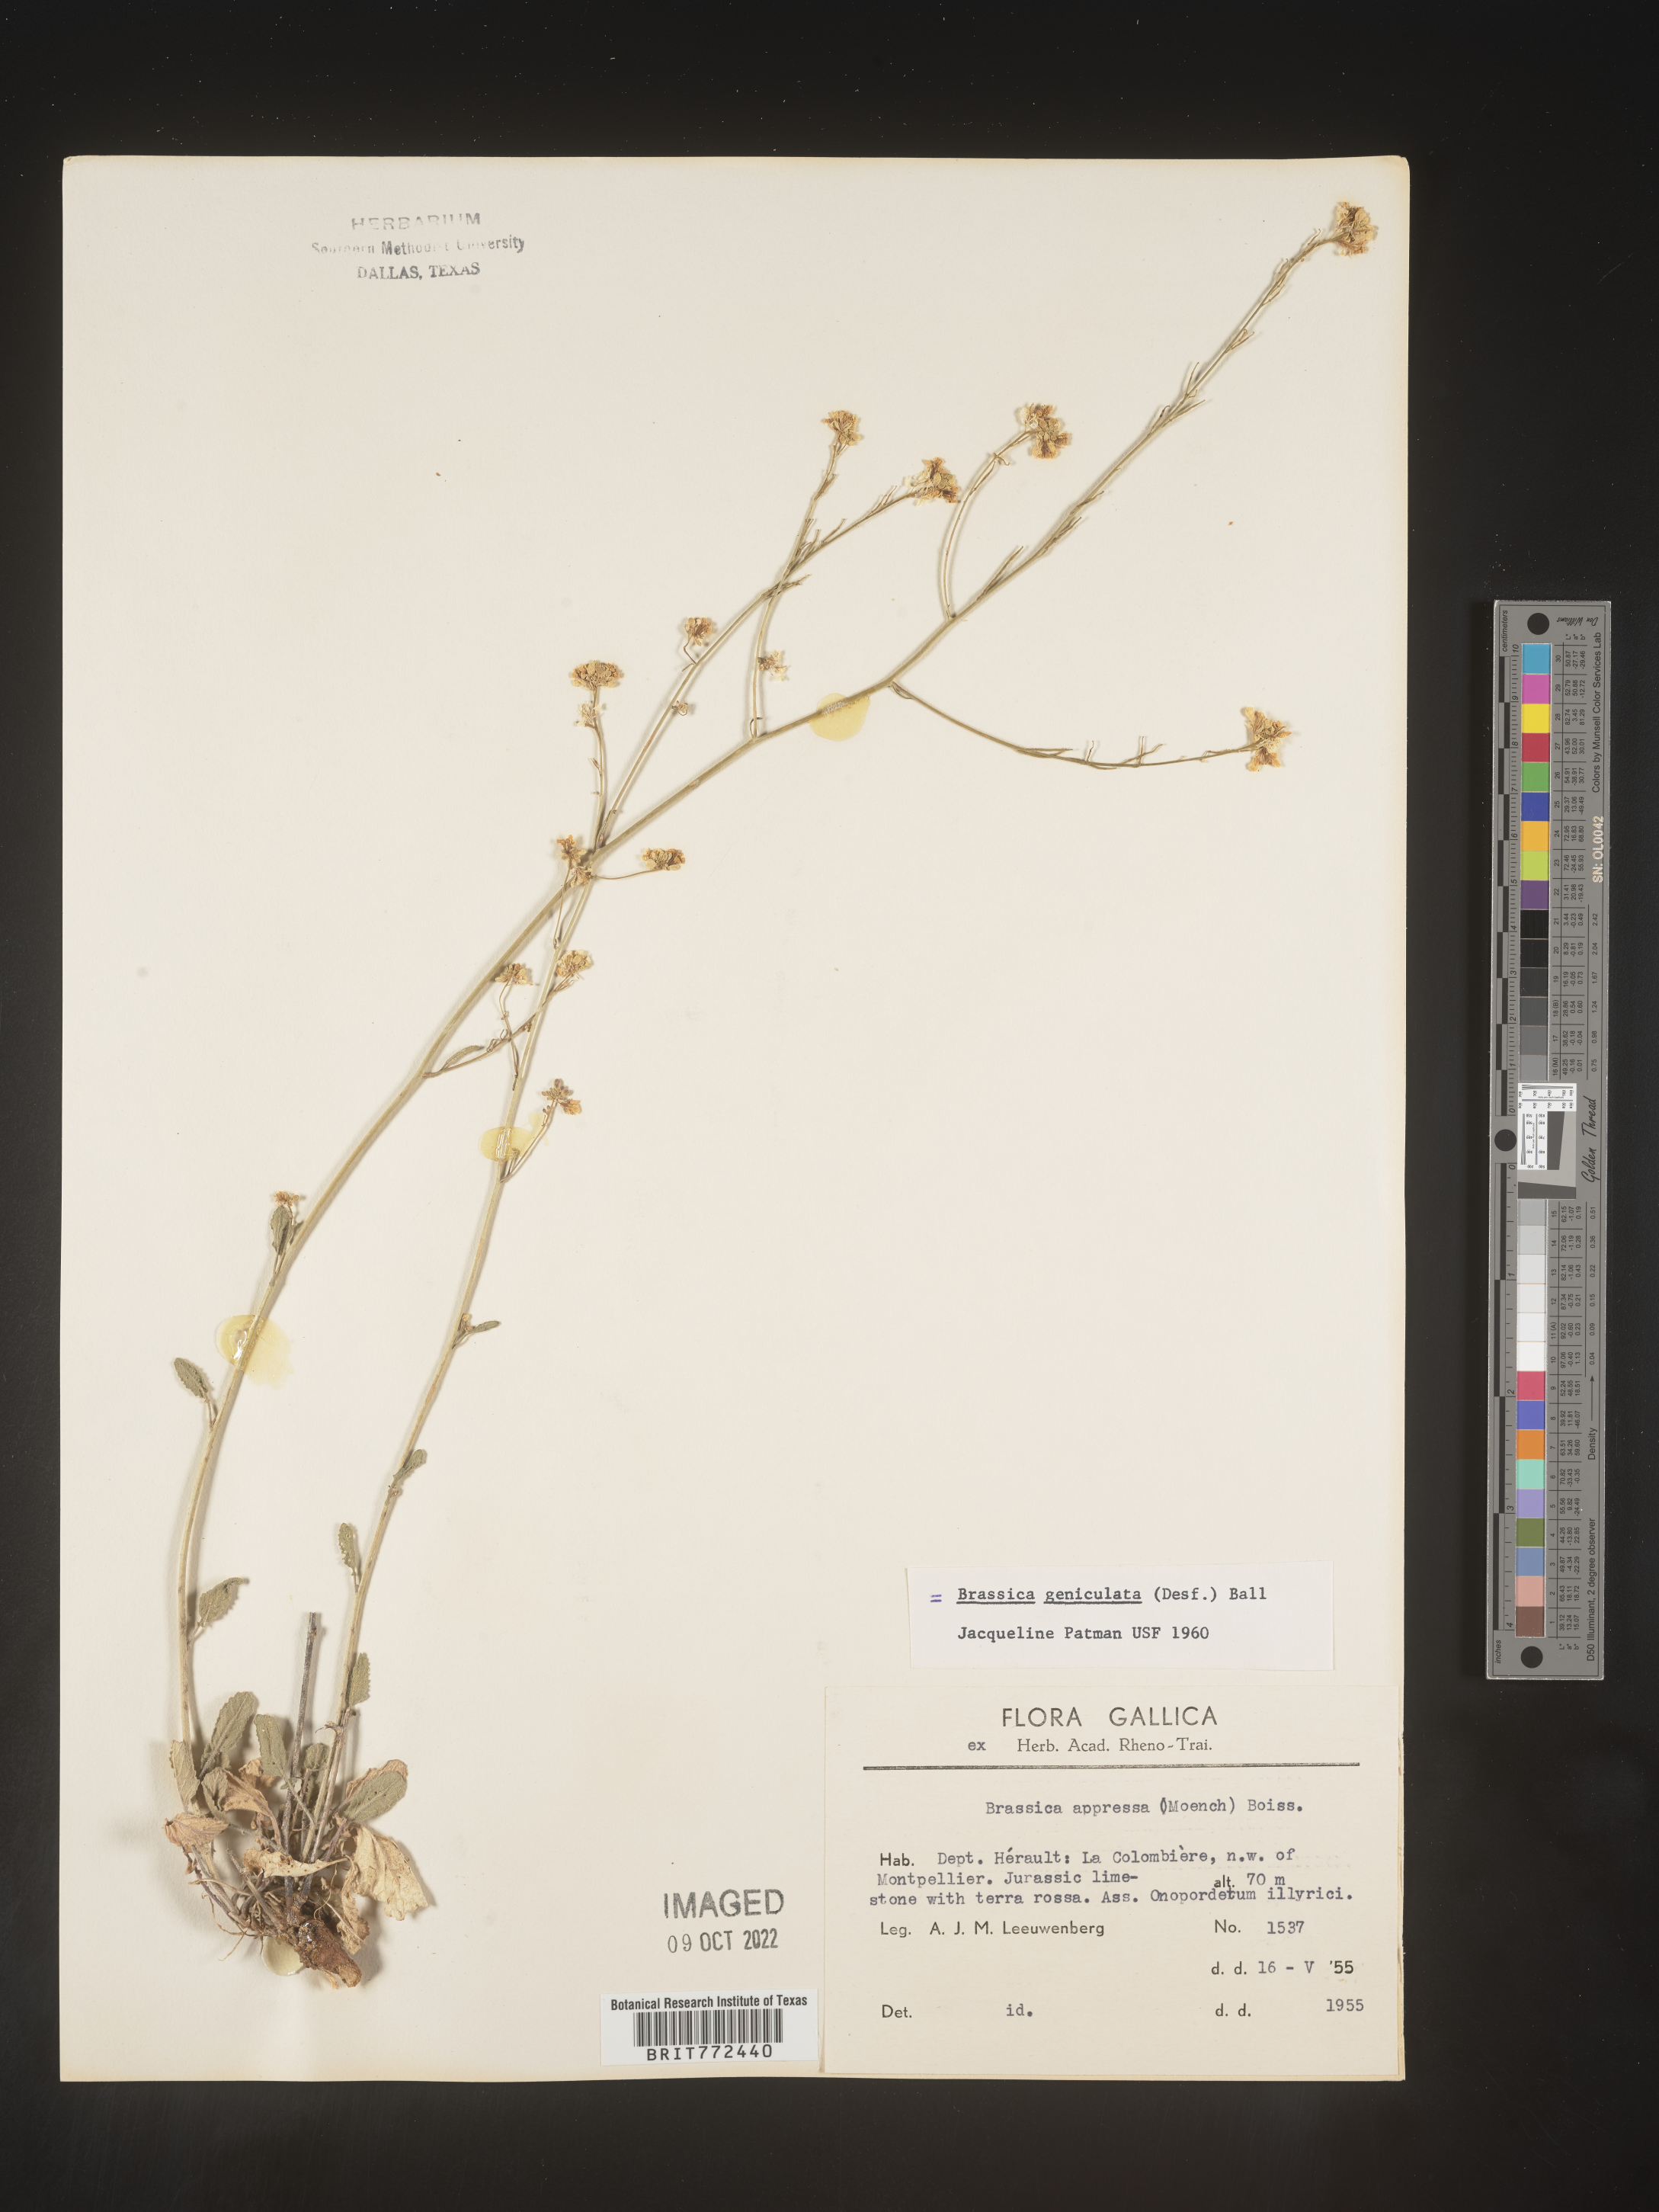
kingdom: Plantae
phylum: Tracheophyta
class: Magnoliopsida
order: Brassicales
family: Brassicaceae
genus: Brassica
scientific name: Brassica
